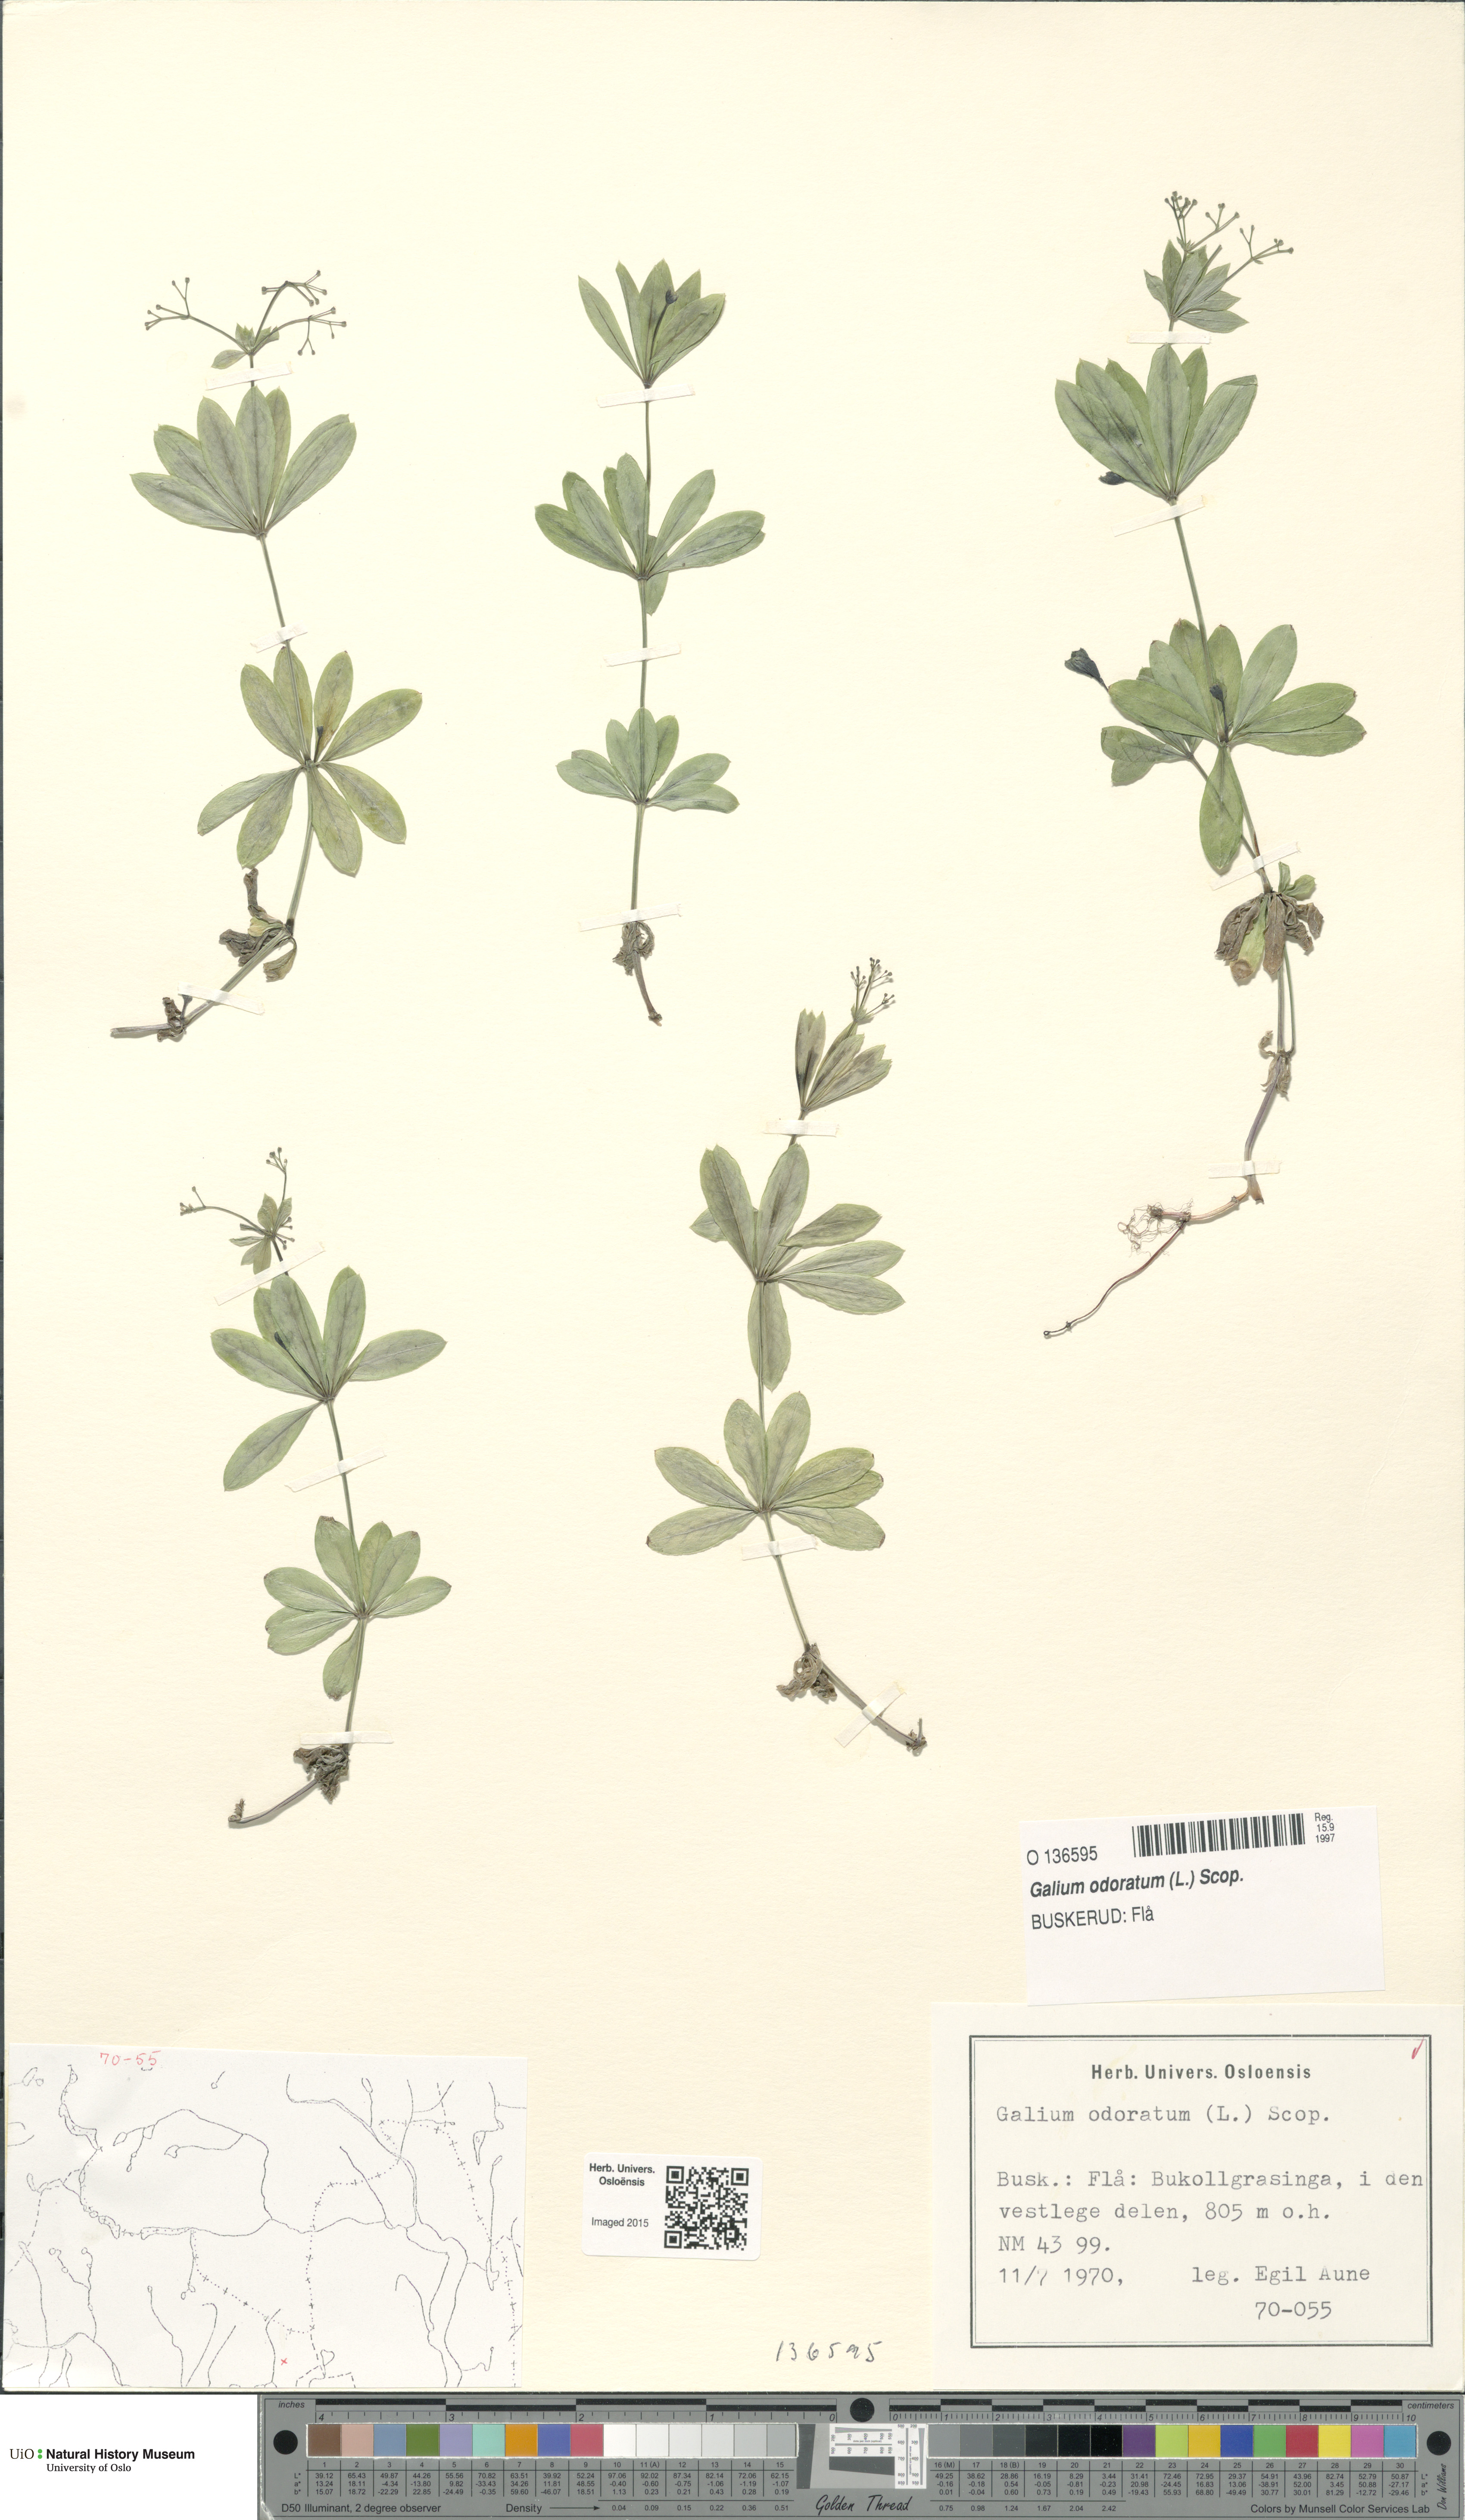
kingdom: Plantae
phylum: Tracheophyta
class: Magnoliopsida
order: Gentianales
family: Rubiaceae
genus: Galium
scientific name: Galium odoratum
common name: Sweet woodruff
